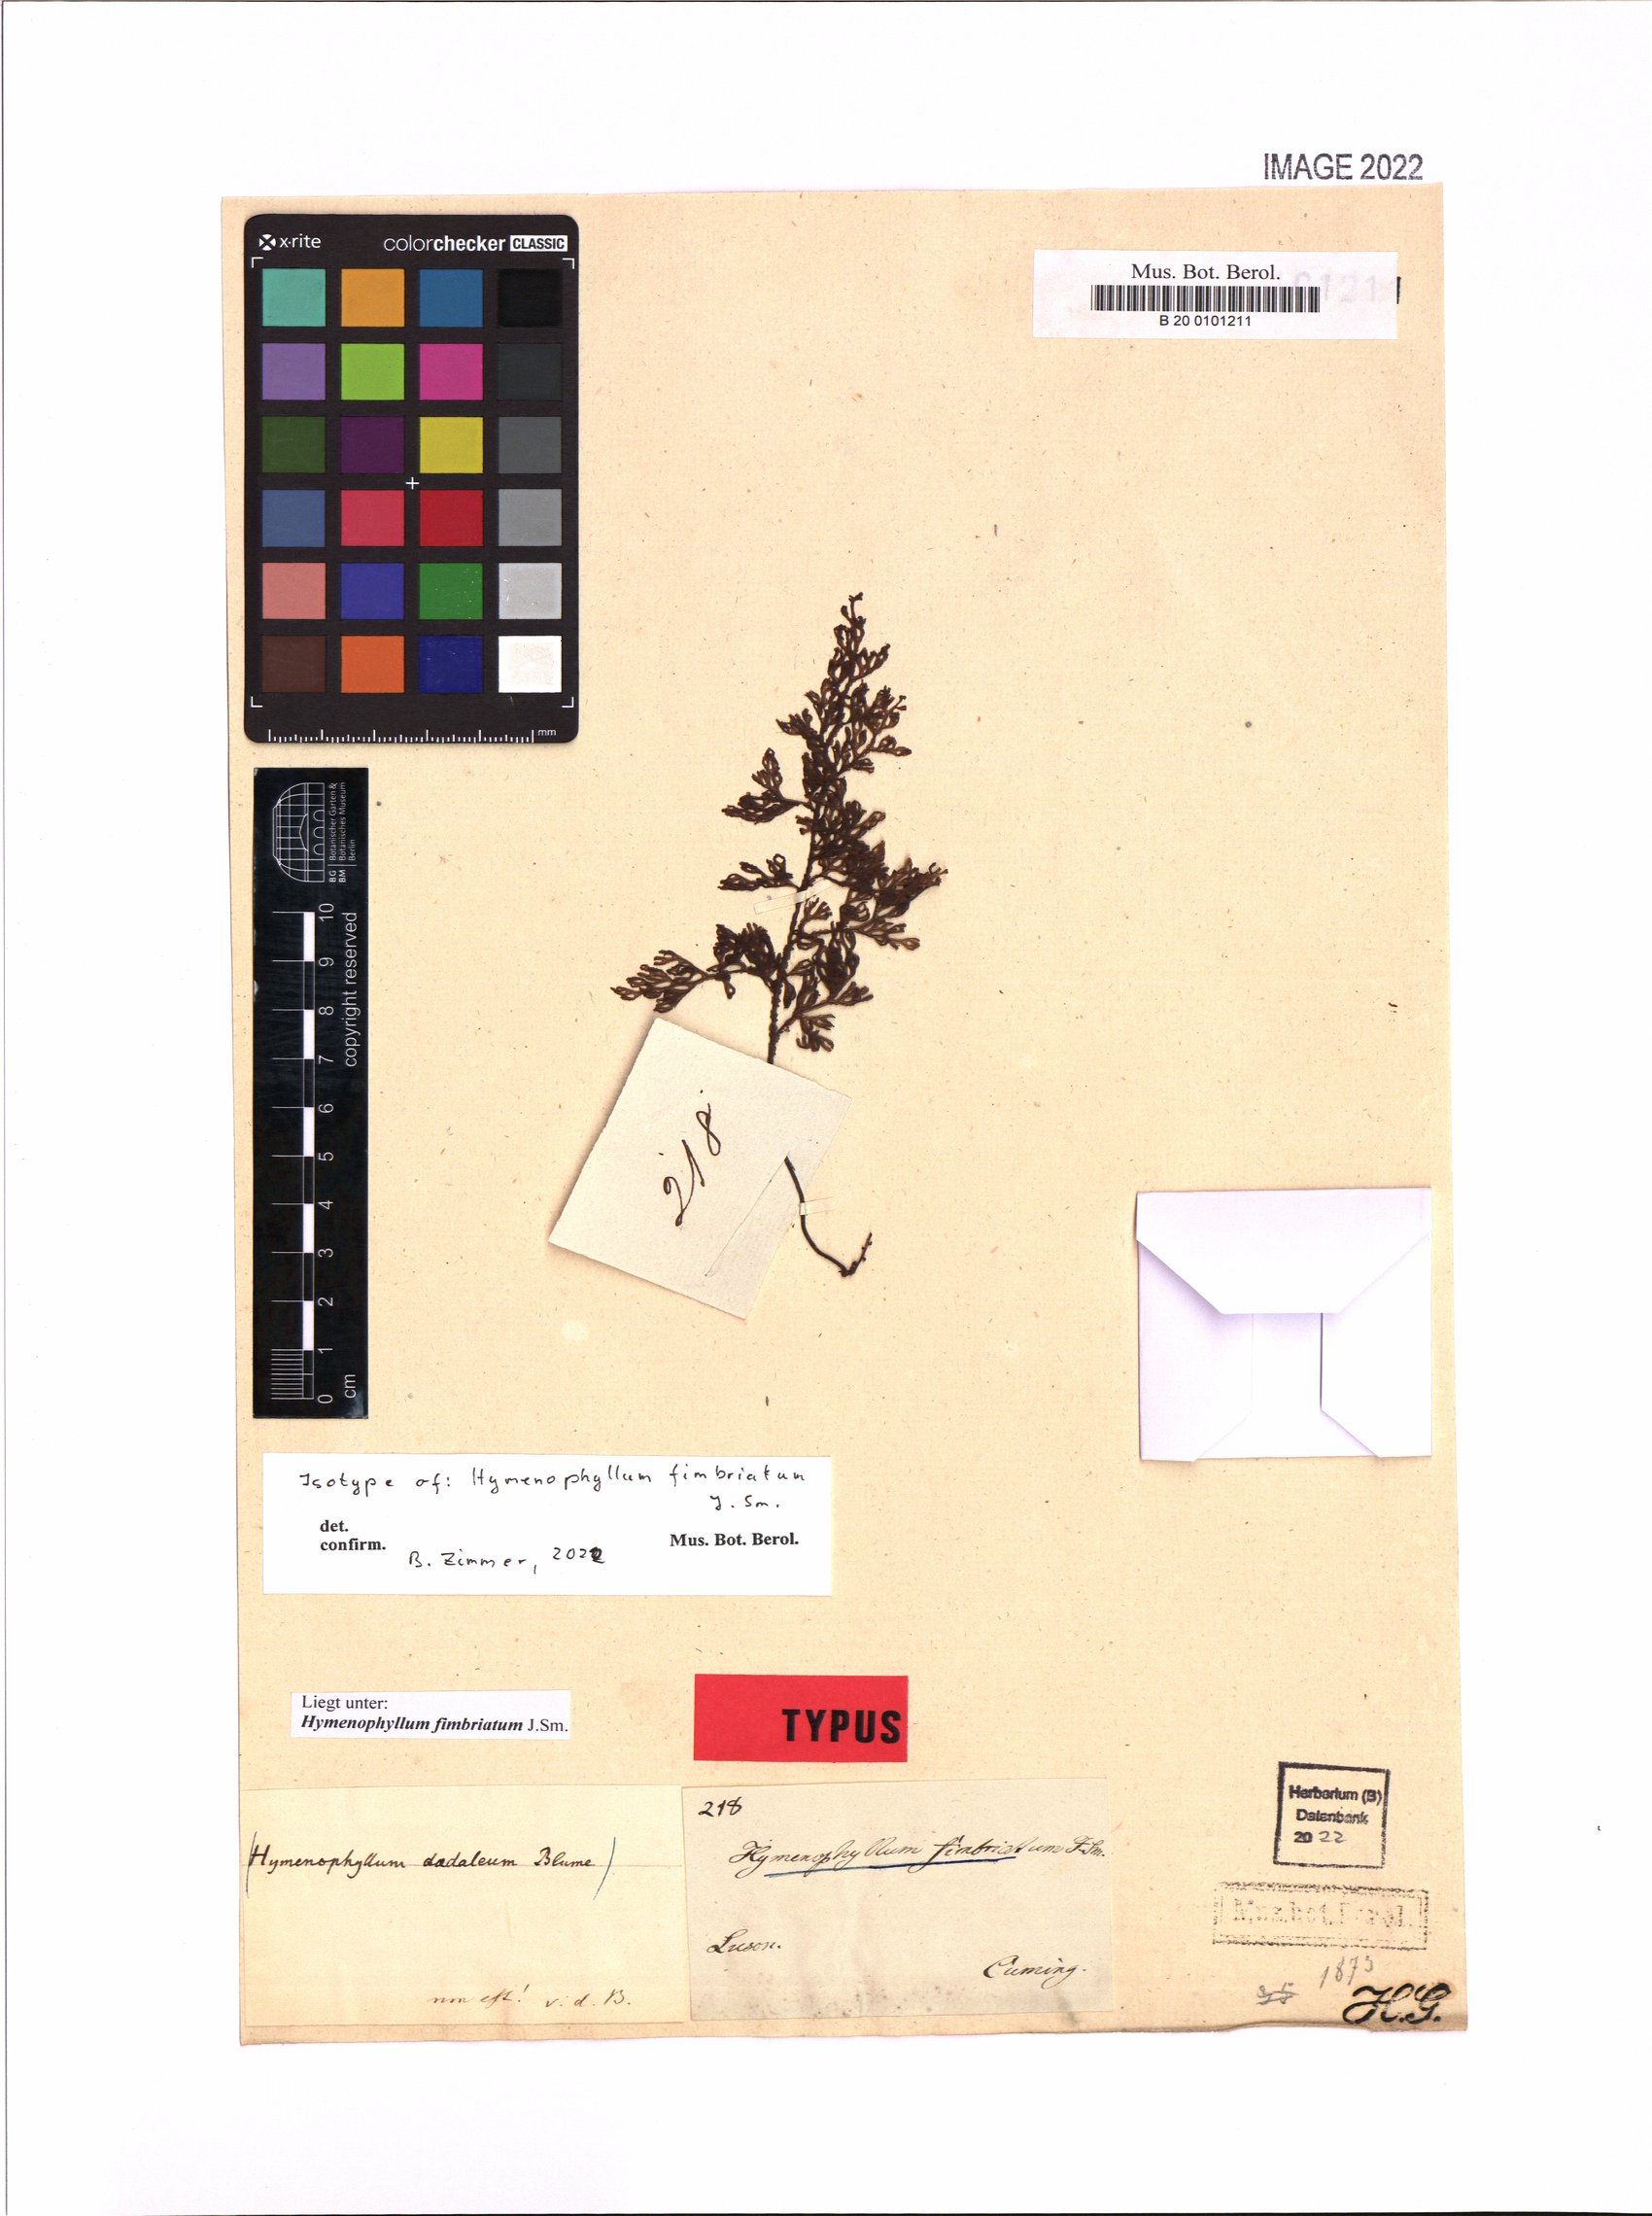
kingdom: Plantae
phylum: Tracheophyta
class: Polypodiopsida
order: Hymenophyllales
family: Hymenophyllaceae
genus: Hymenophyllum
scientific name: Hymenophyllum fimbriatum
